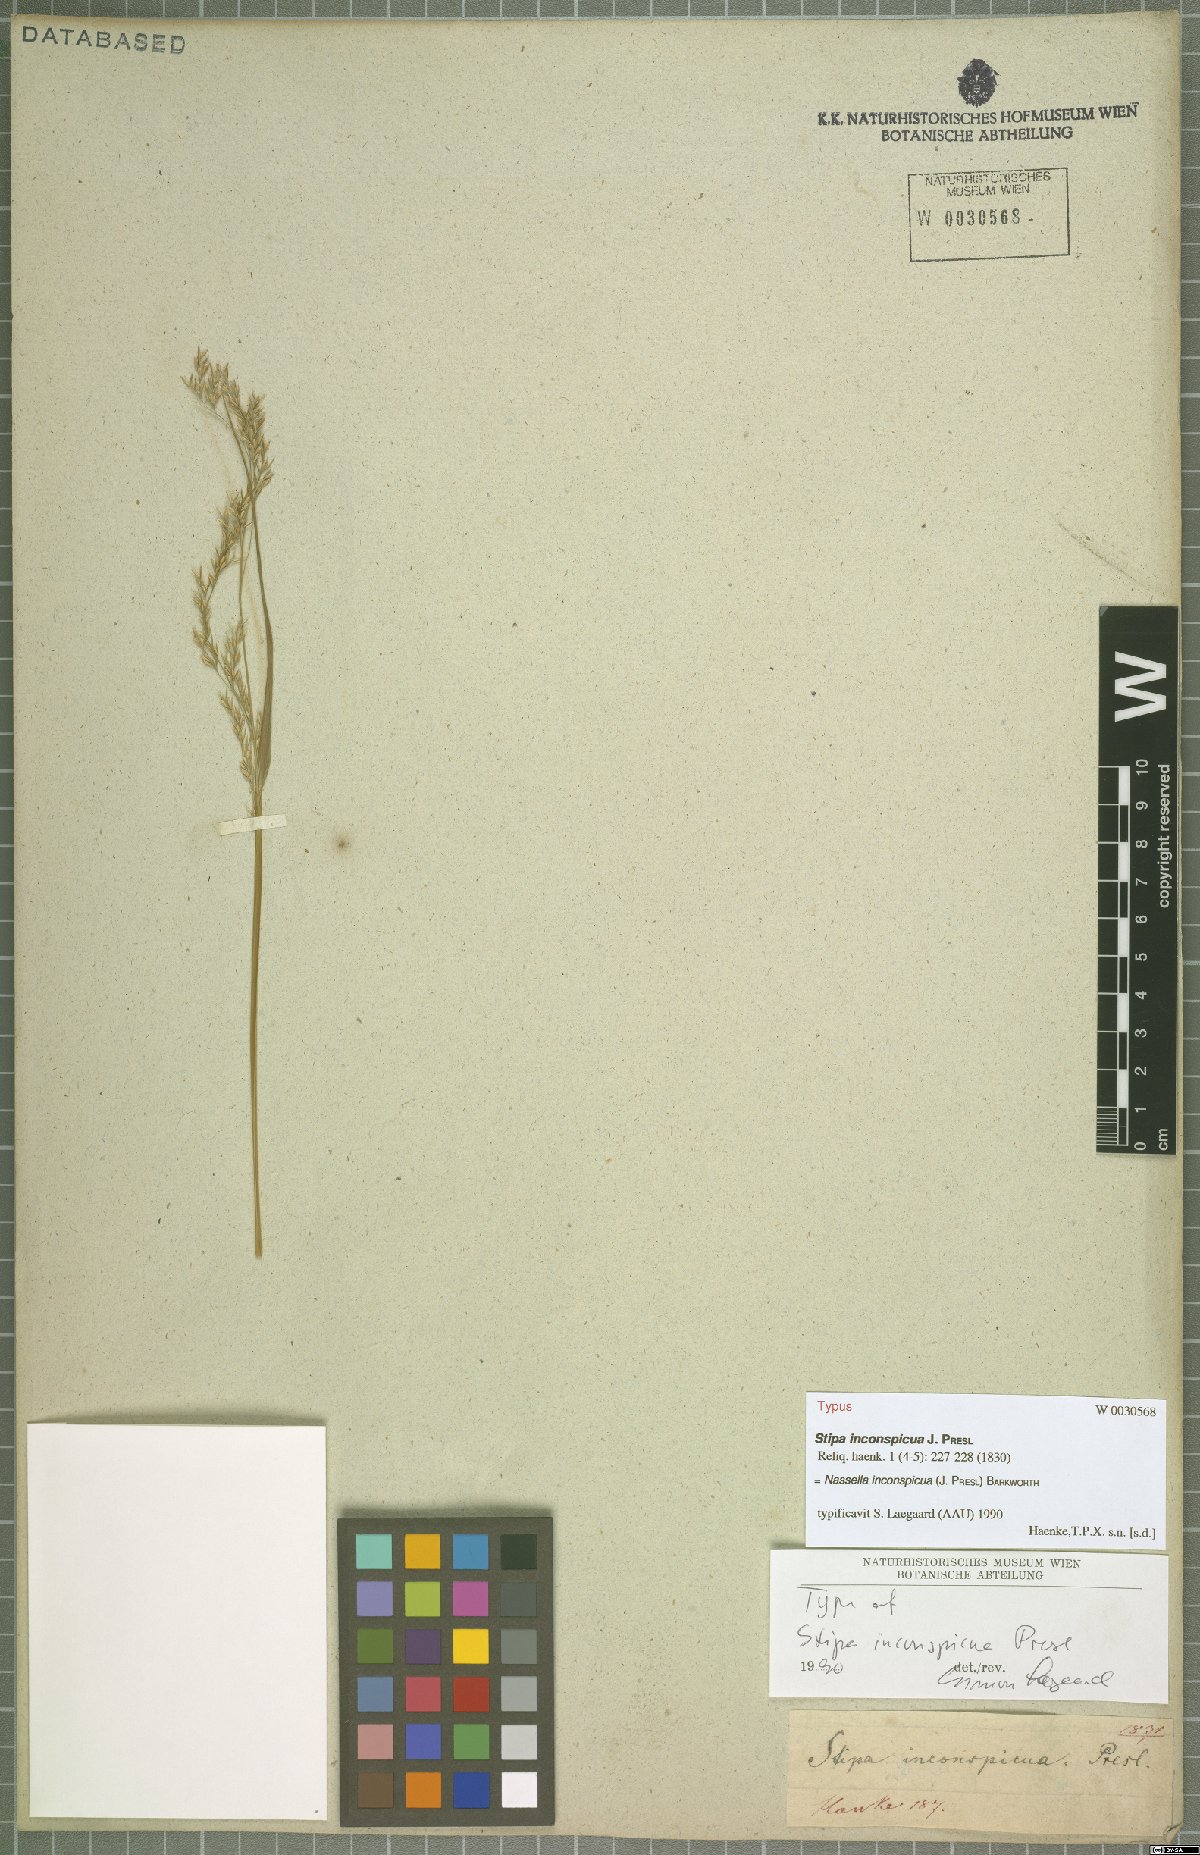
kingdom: Plantae
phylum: Tracheophyta
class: Liliopsida
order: Poales
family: Poaceae
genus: Nassella
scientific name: Nassella inconspicua
